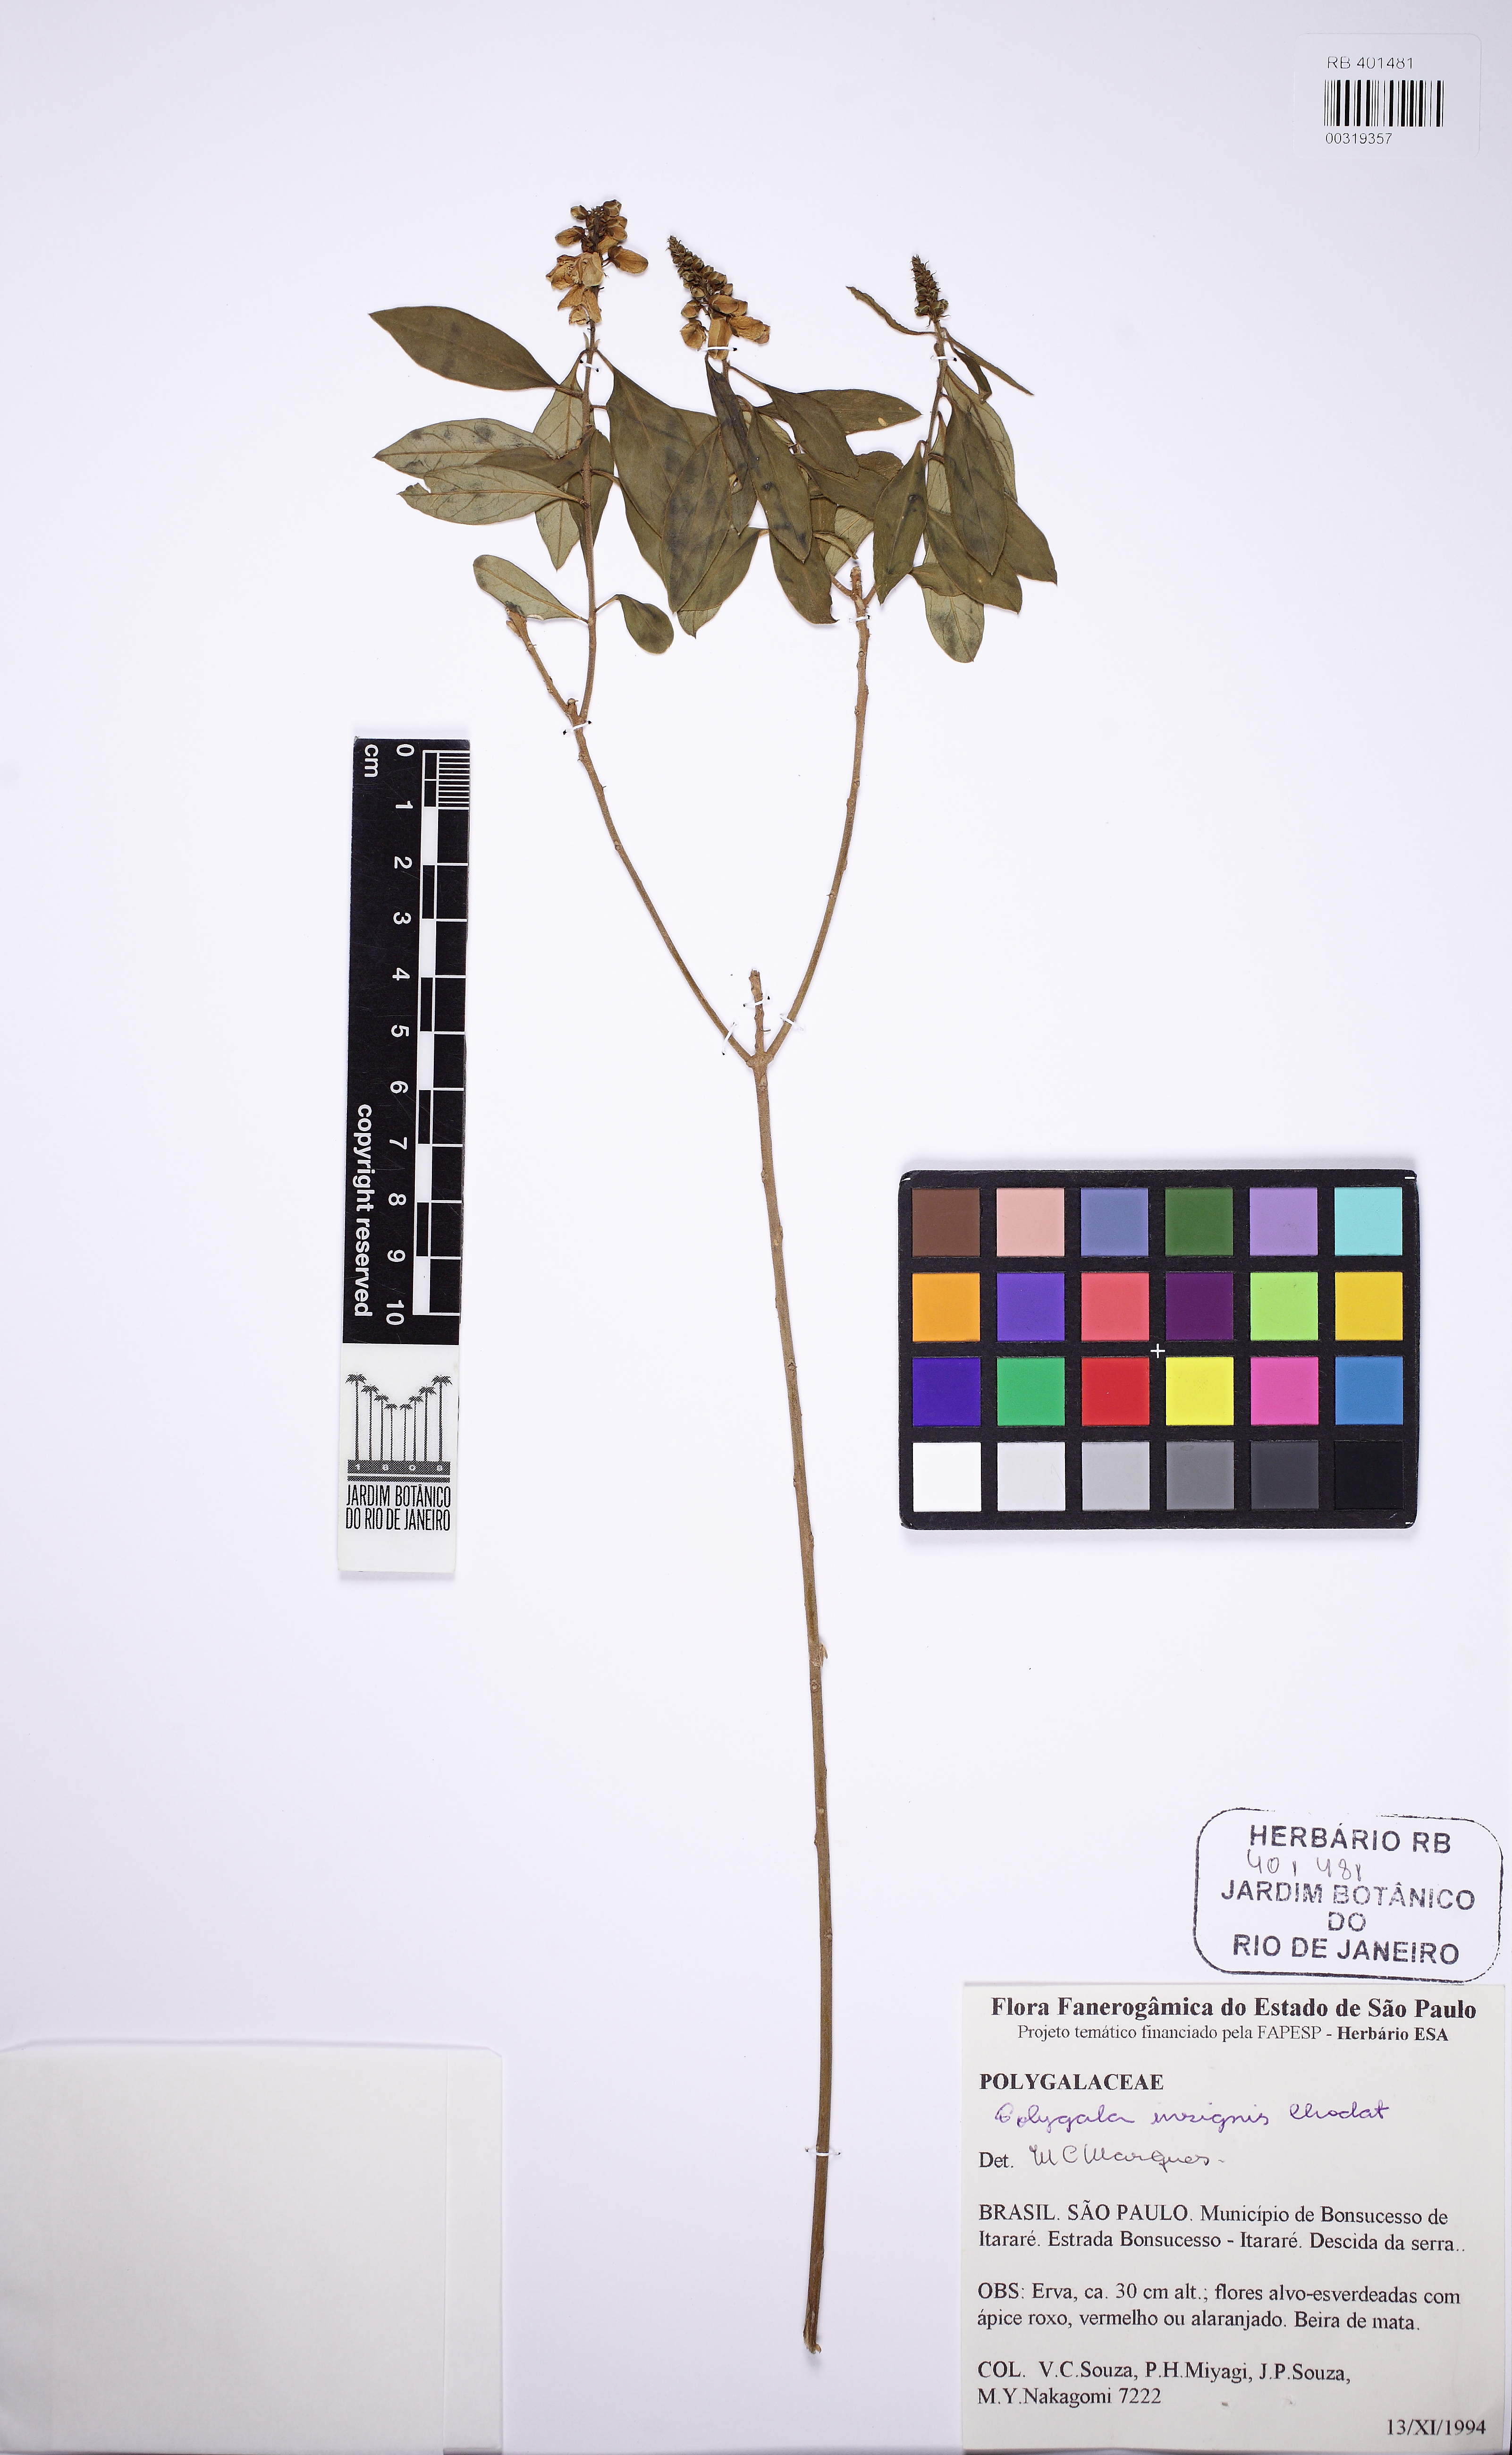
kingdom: Plantae
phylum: Tracheophyta
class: Magnoliopsida
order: Fabales
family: Polygalaceae
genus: Caamembeca
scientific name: Caamembeca insignis
